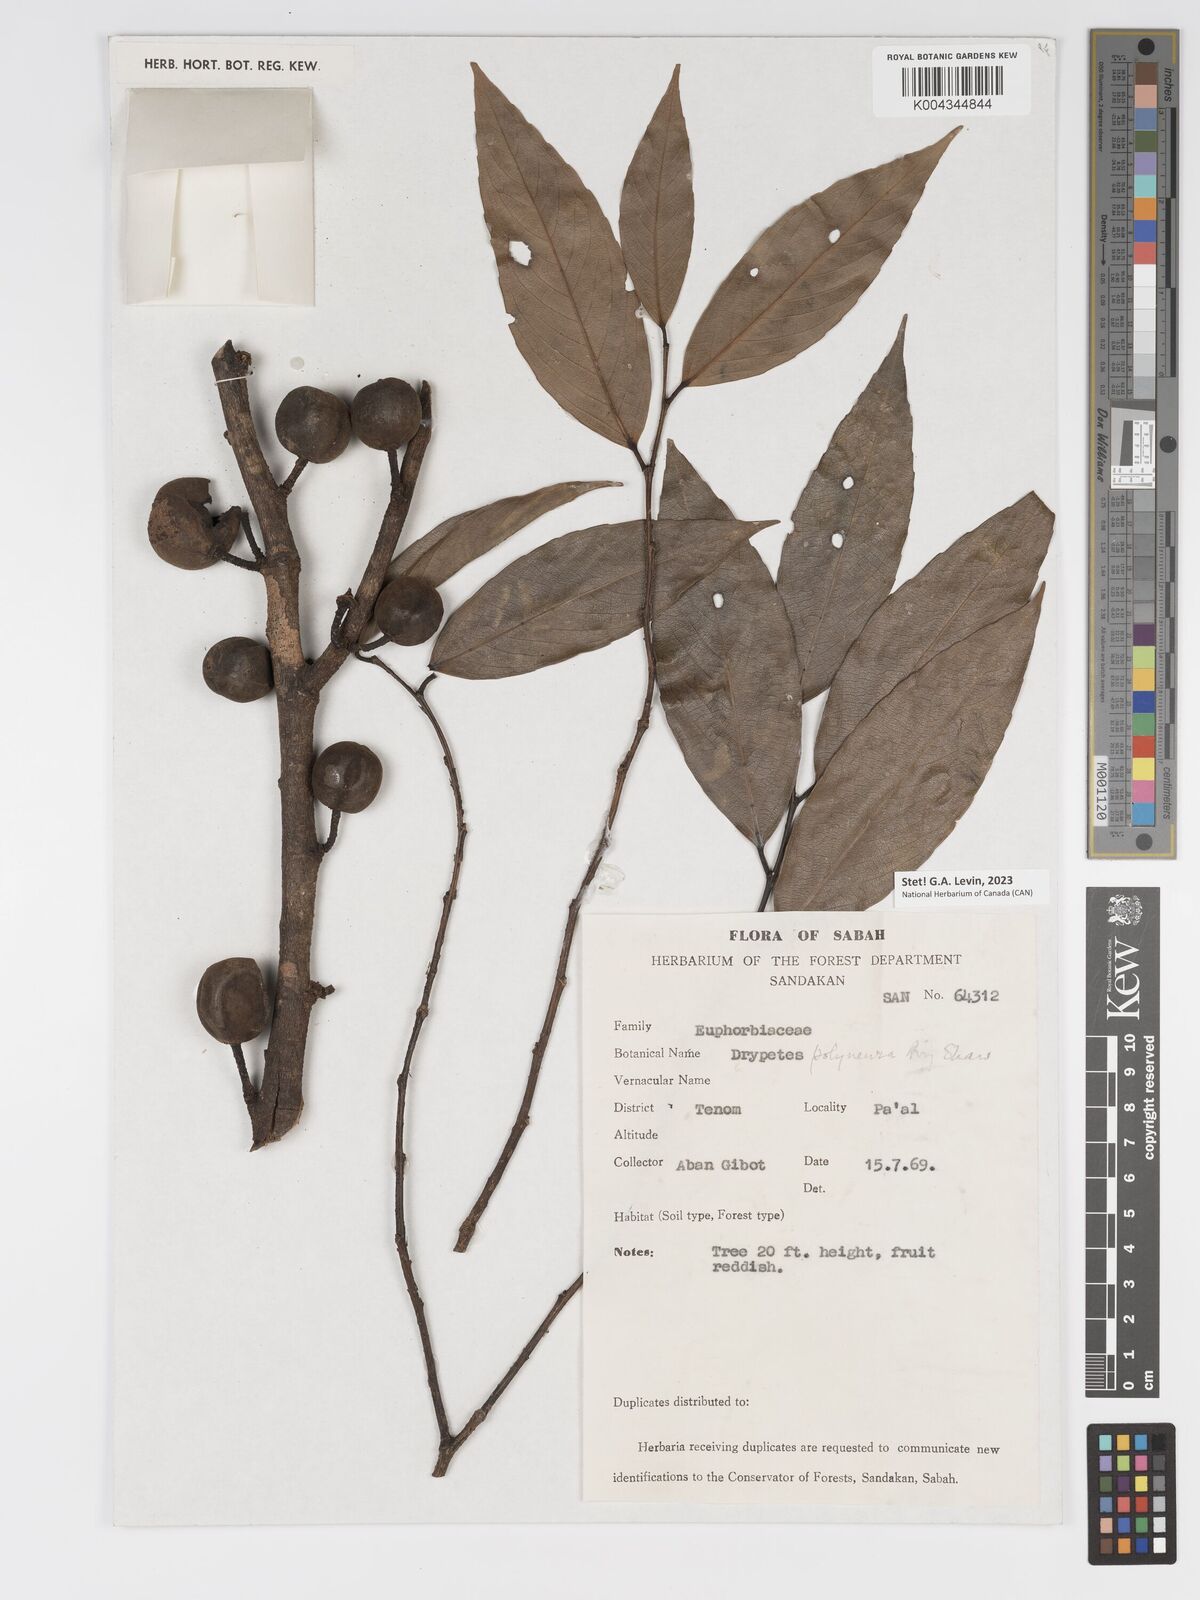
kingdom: Plantae
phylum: Tracheophyta
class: Magnoliopsida
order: Malpighiales
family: Putranjivaceae
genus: Drypetes
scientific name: Drypetes polyneura
